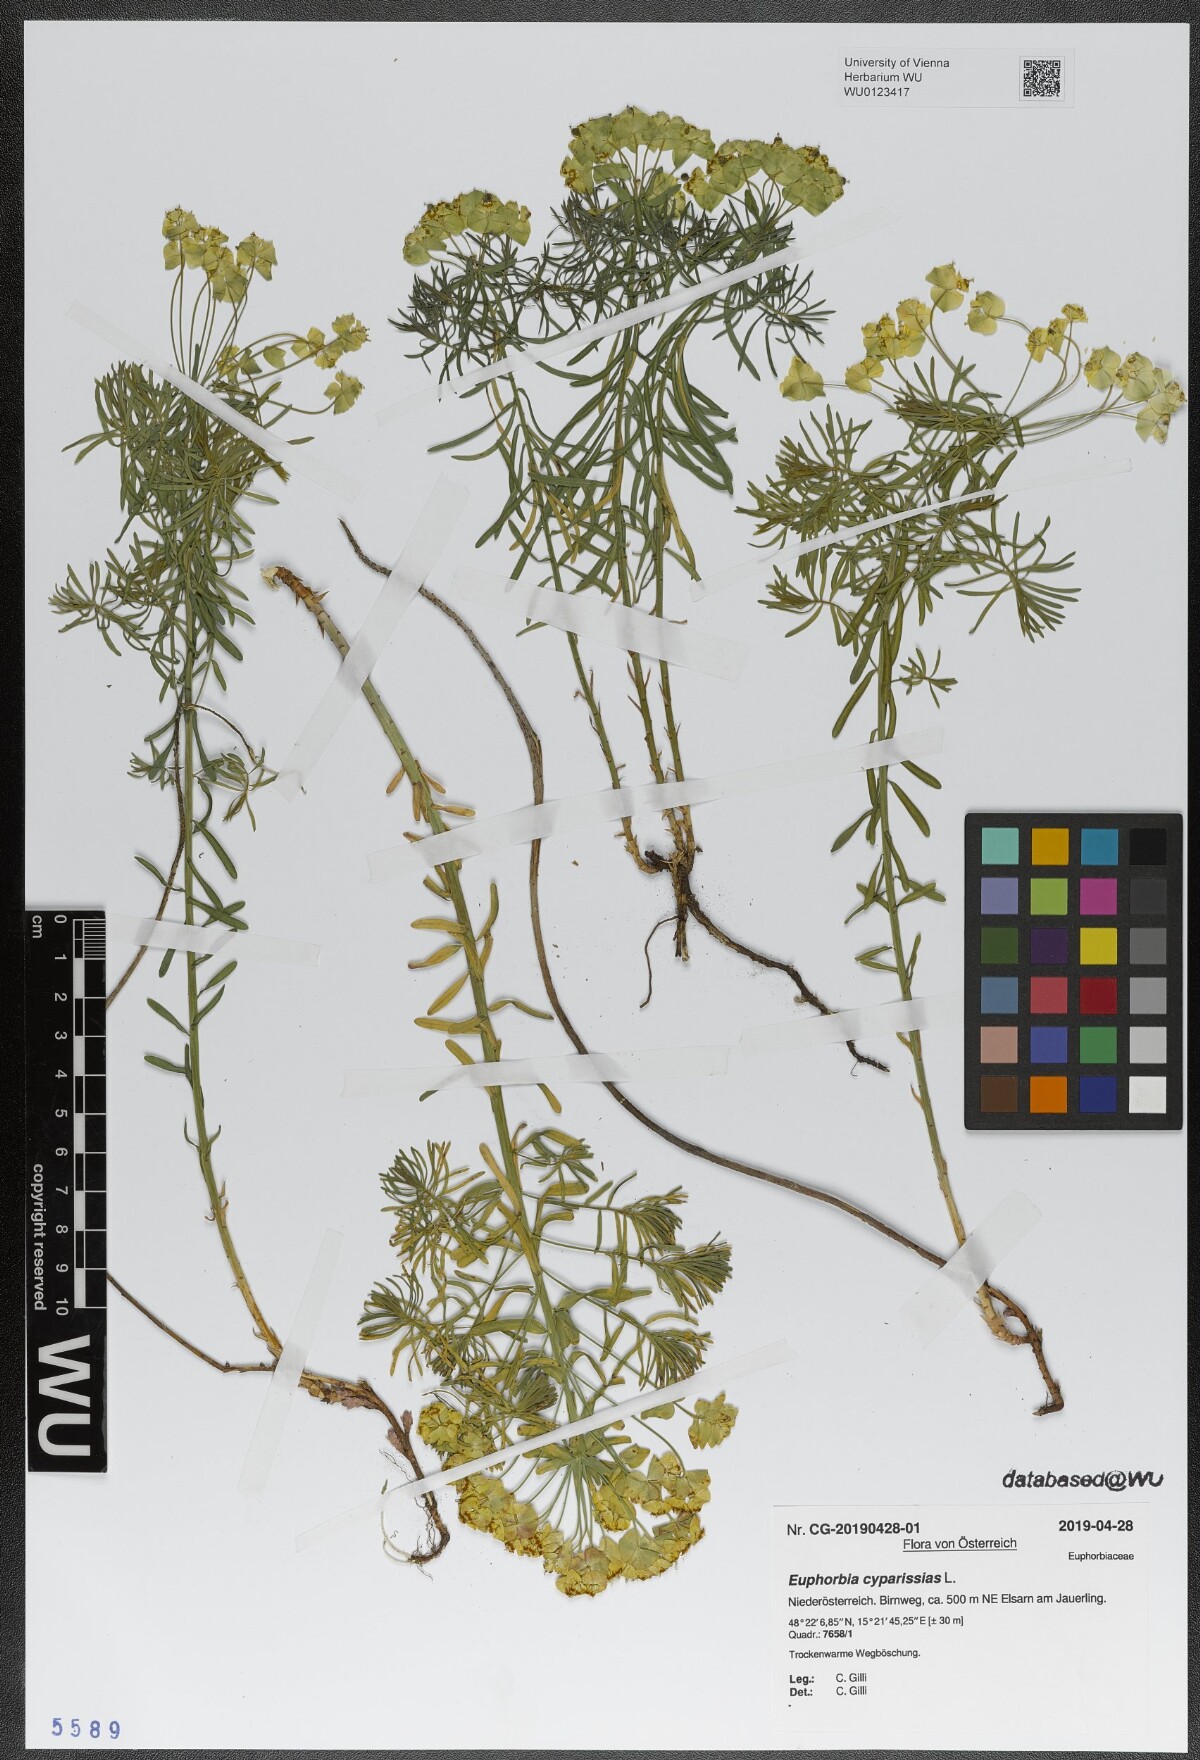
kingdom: Plantae
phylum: Tracheophyta
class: Magnoliopsida
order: Malpighiales
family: Euphorbiaceae
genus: Euphorbia
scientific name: Euphorbia cyparissias
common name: Cypress spurge
